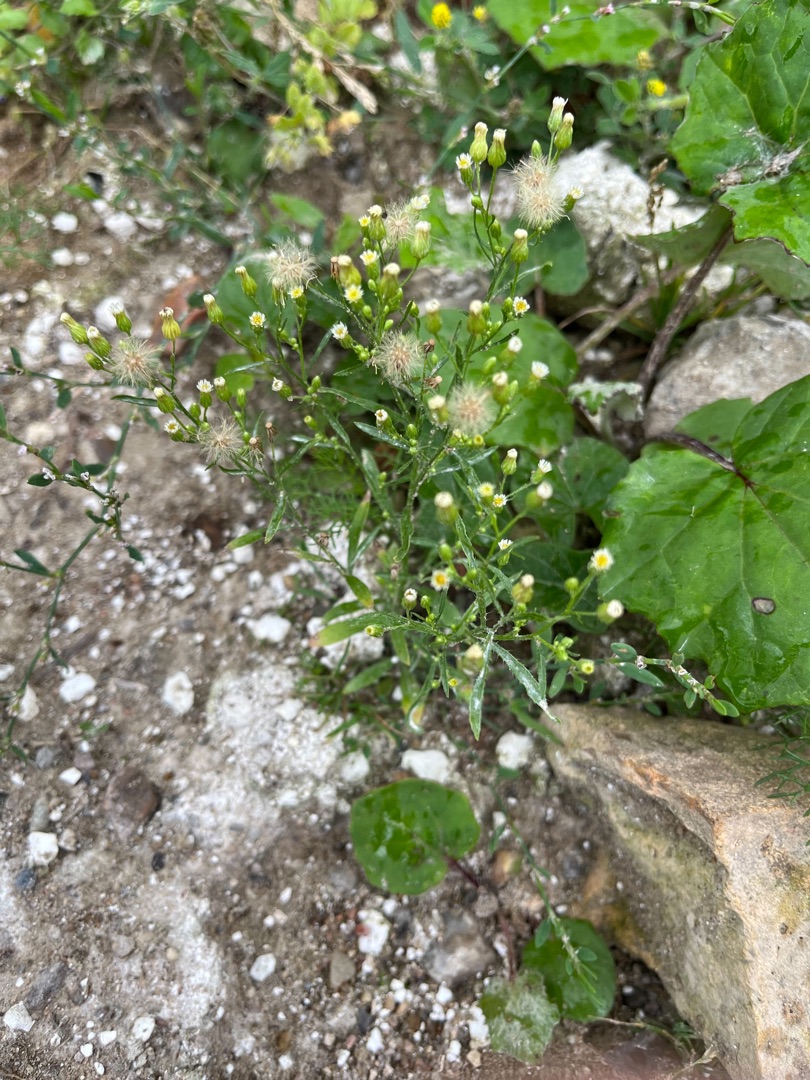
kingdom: Plantae
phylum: Tracheophyta
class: Magnoliopsida
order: Asterales
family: Asteraceae
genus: Erigeron
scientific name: Erigeron canadensis
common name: Kanadisk bakkestjerne
